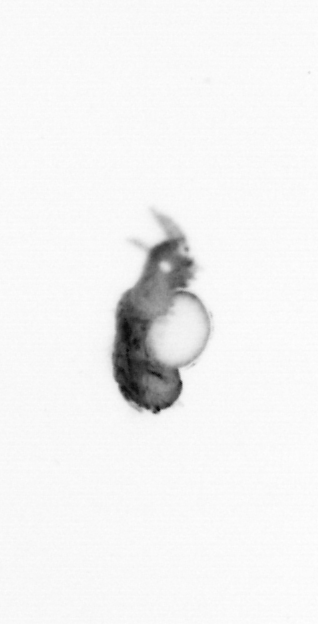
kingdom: Animalia
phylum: Annelida
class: Polychaeta
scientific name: Polychaeta
